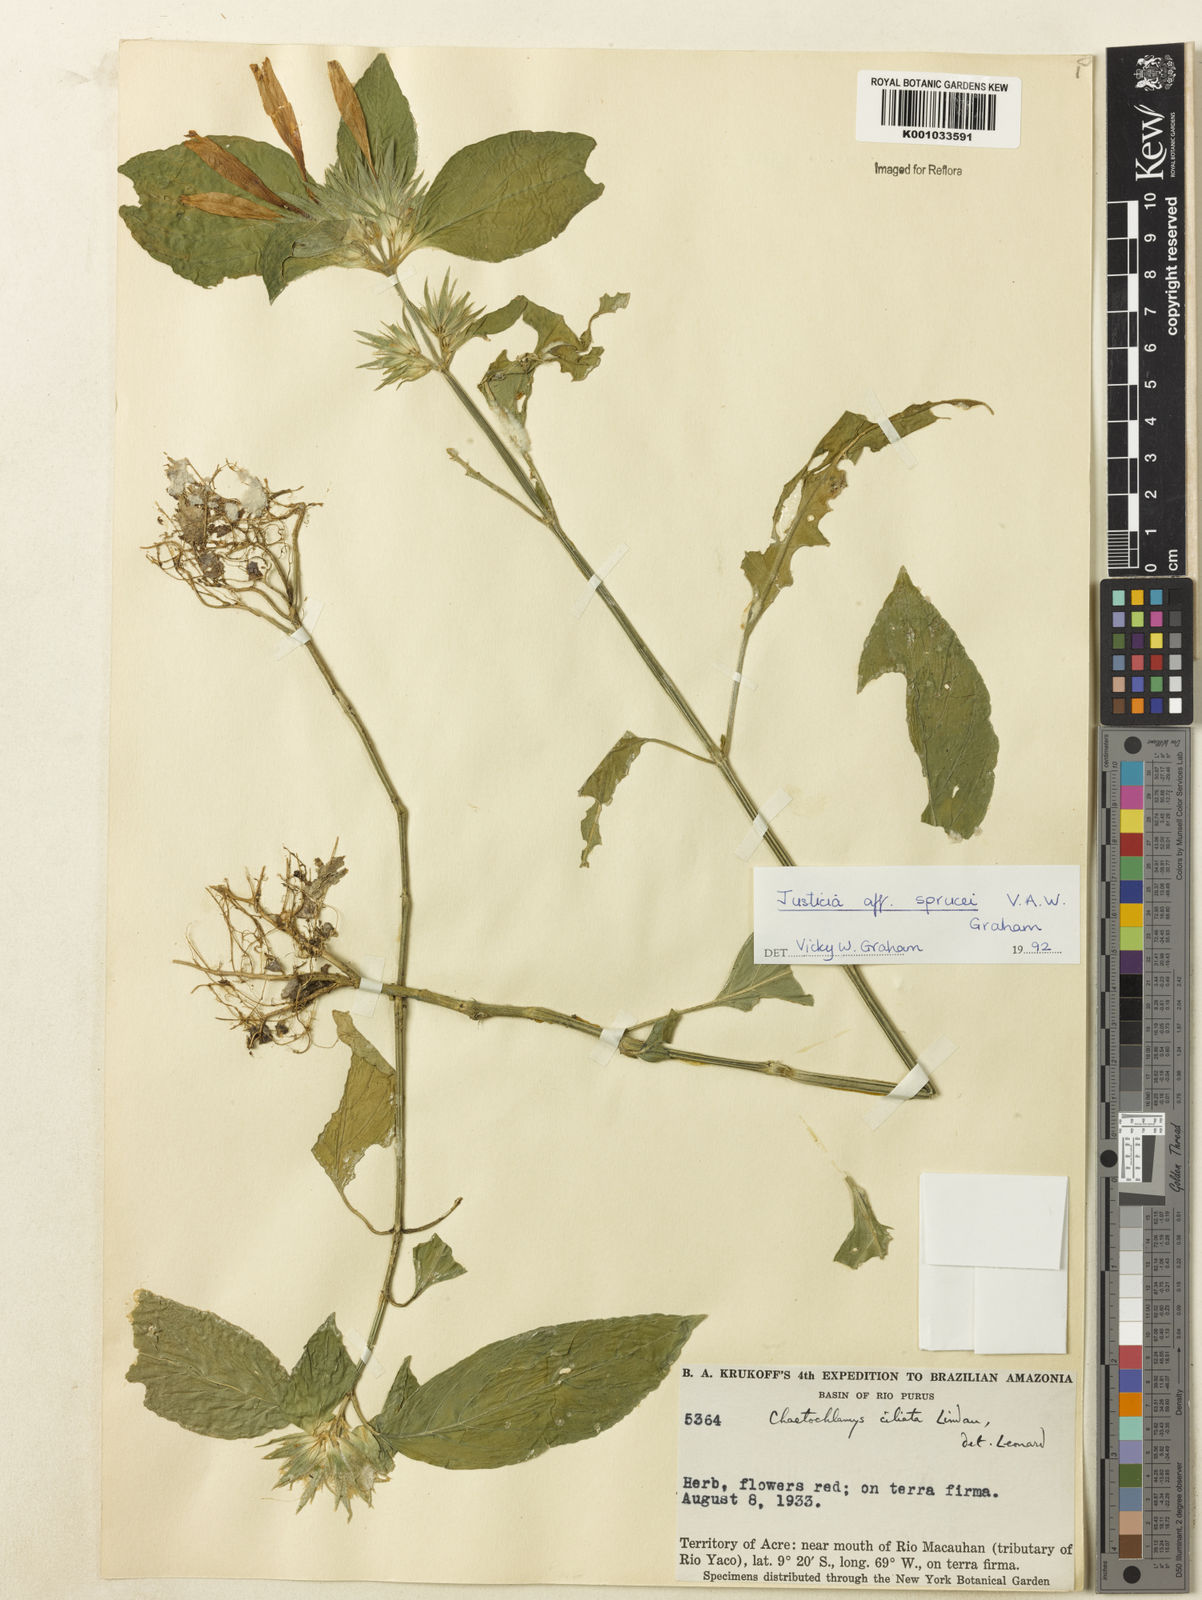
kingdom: Plantae
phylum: Tracheophyta
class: Magnoliopsida
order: Lamiales
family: Acanthaceae
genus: Justicia
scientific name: Justicia
